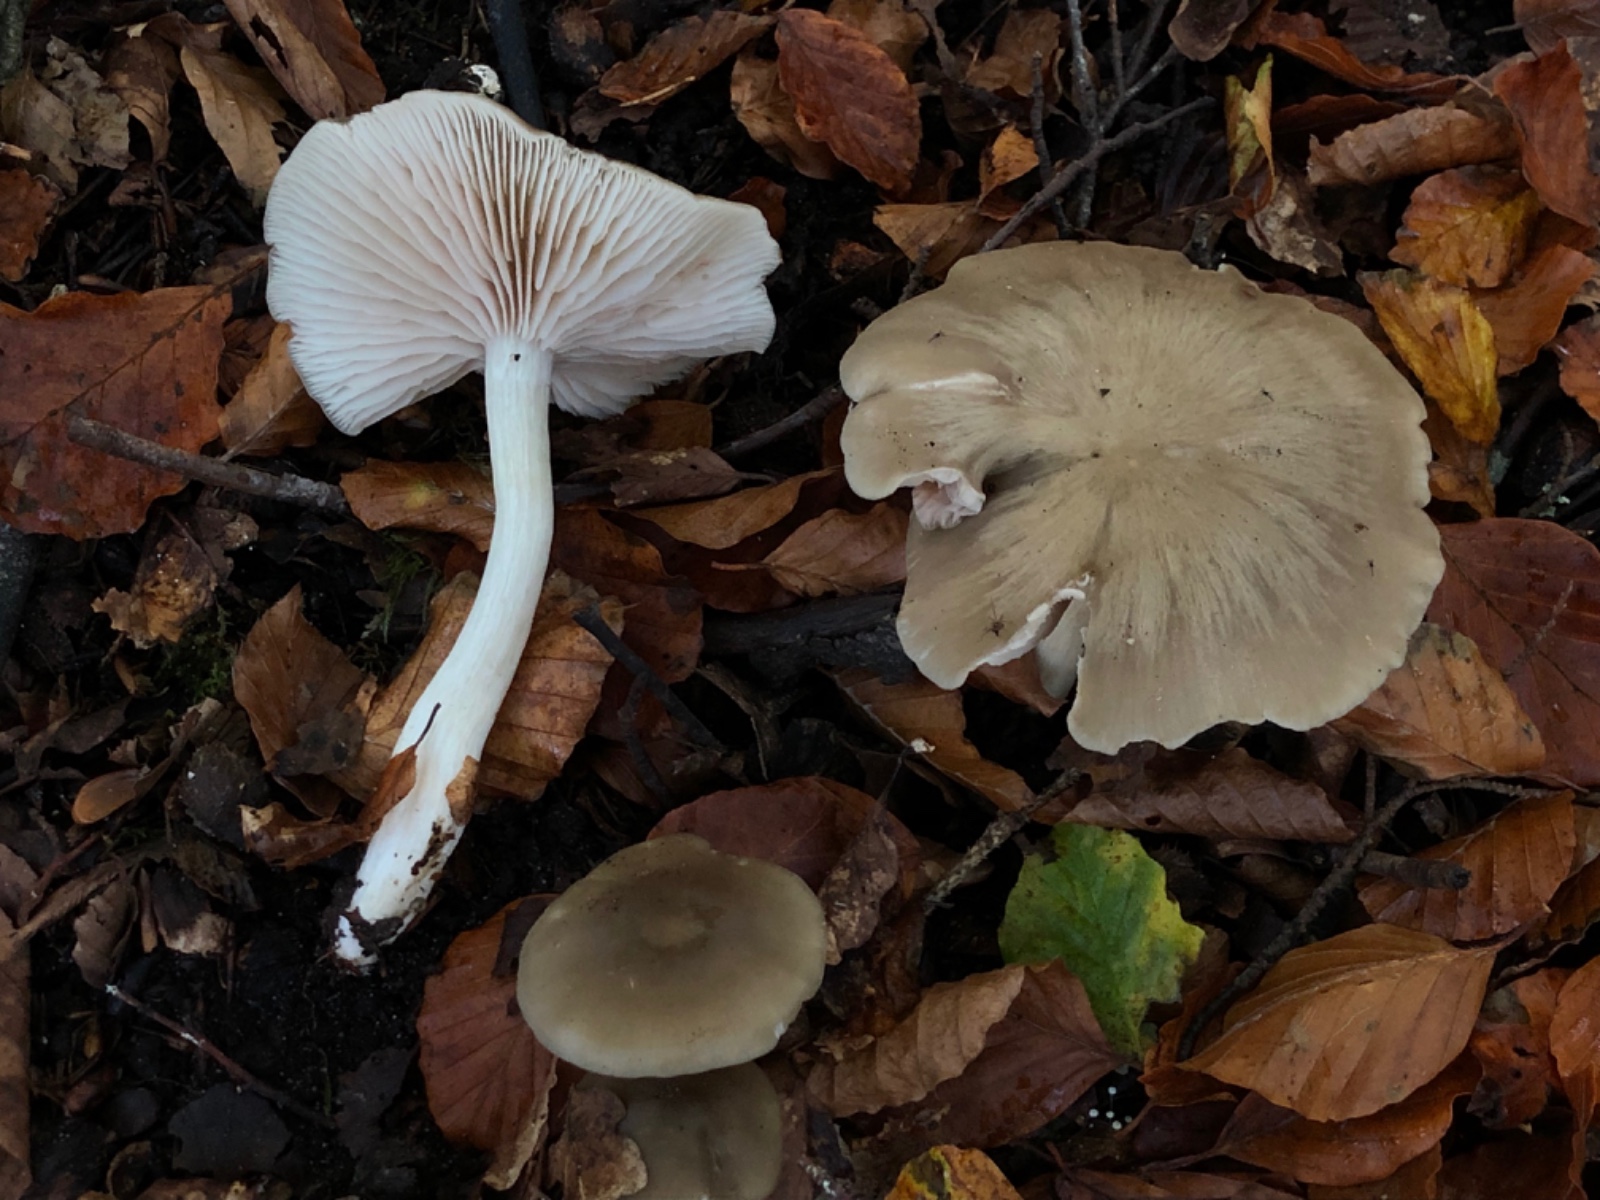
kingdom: Fungi
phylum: Basidiomycota
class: Agaricomycetes
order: Agaricales
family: Entolomataceae
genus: Entoloma
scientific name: Entoloma rhodopolium
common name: skov-rødblad
